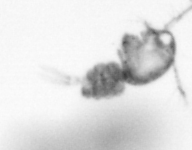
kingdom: Animalia
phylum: Arthropoda
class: Copepoda
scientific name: Copepoda
